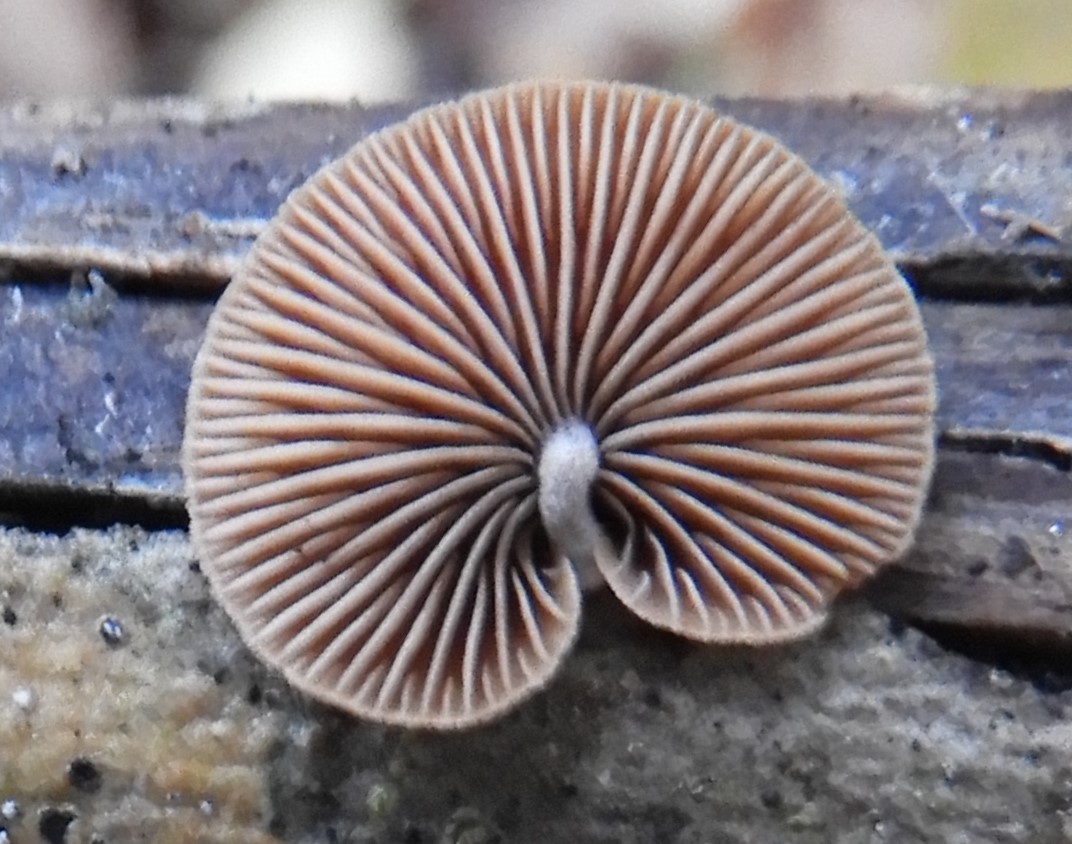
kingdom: Fungi
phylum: Basidiomycota
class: Agaricomycetes
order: Agaricales
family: Strophariaceae
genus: Deconica
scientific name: Deconica horizontalis
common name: ved-stråhat
